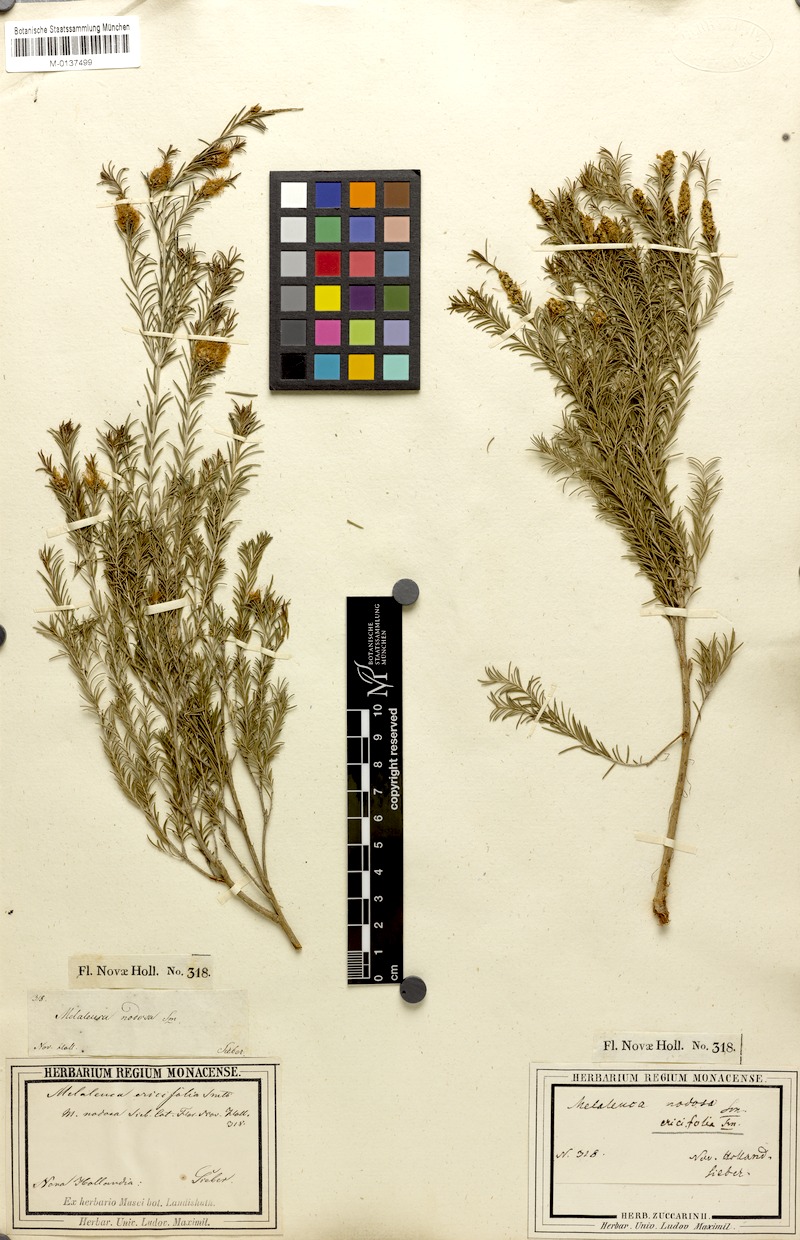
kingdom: Plantae
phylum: Tracheophyta
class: Magnoliopsida
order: Myrtales
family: Myrtaceae
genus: Melaleuca
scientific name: Melaleuca ericifolia
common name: Paperbark teatree
